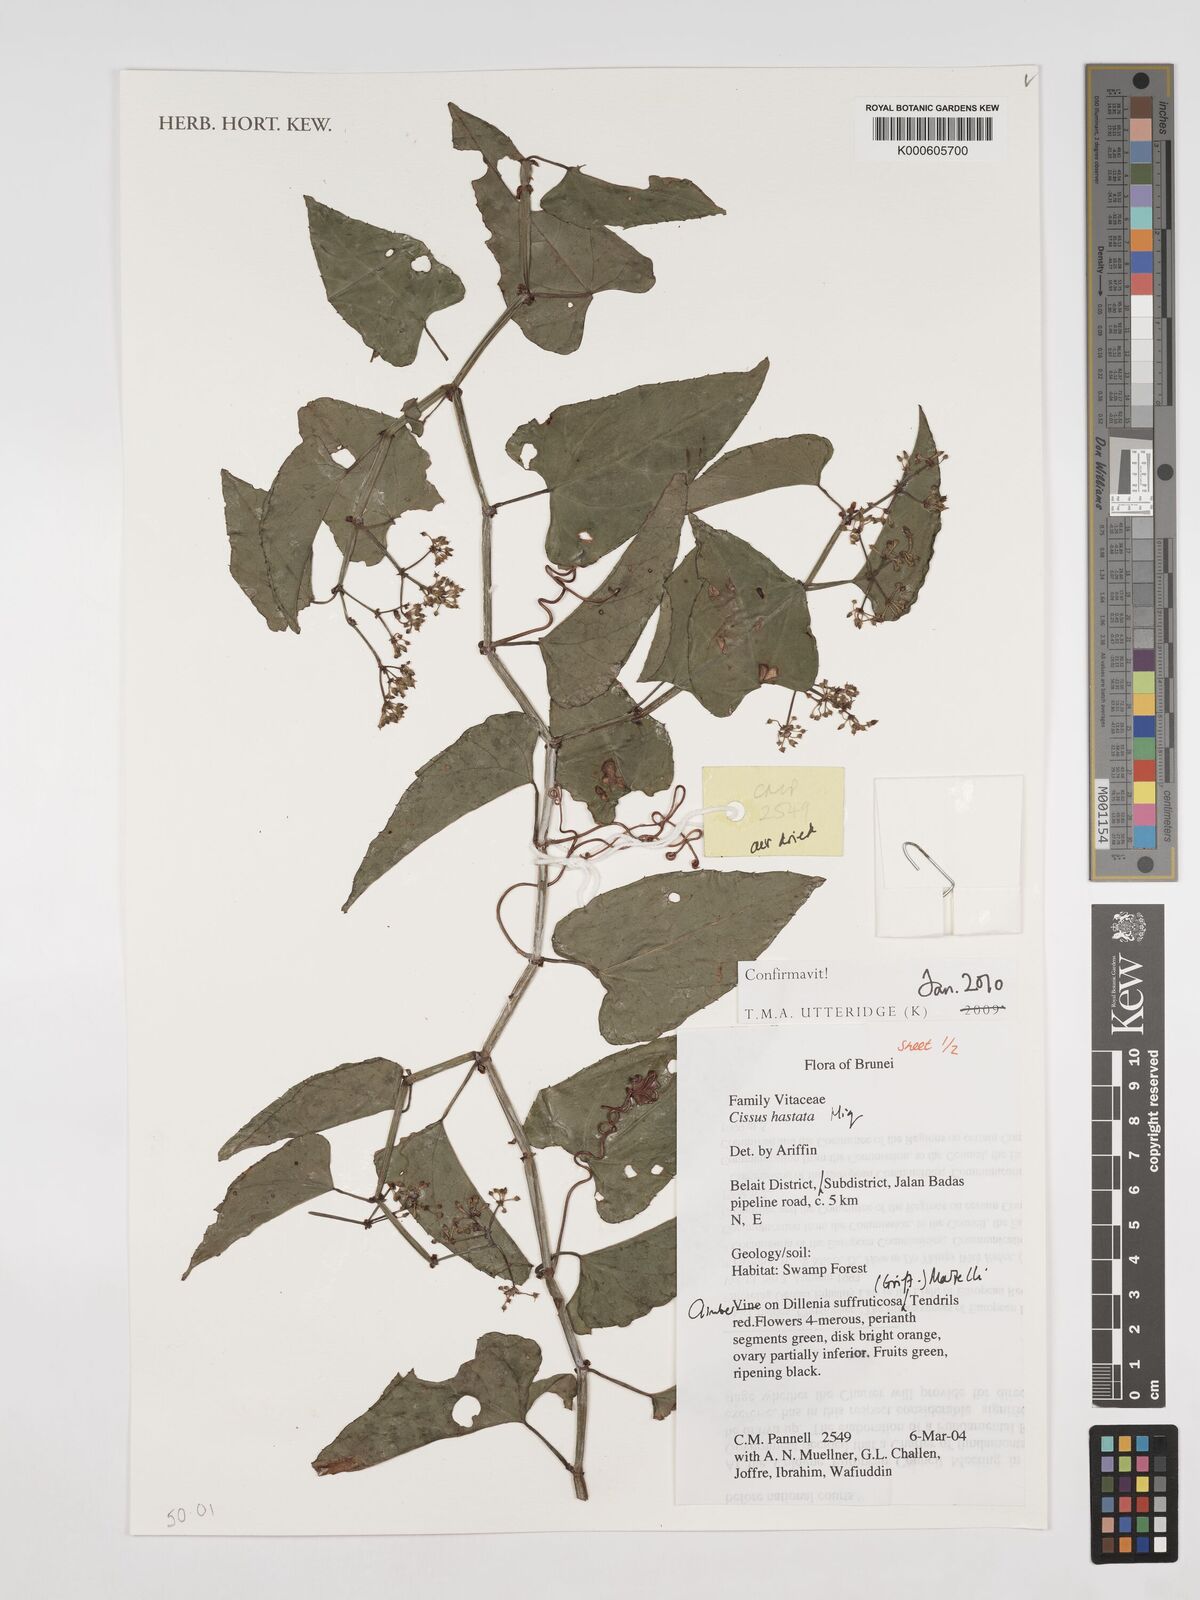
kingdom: Plantae
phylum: Tracheophyta
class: Magnoliopsida
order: Vitales
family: Vitaceae
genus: Cissus
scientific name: Cissus hastata
